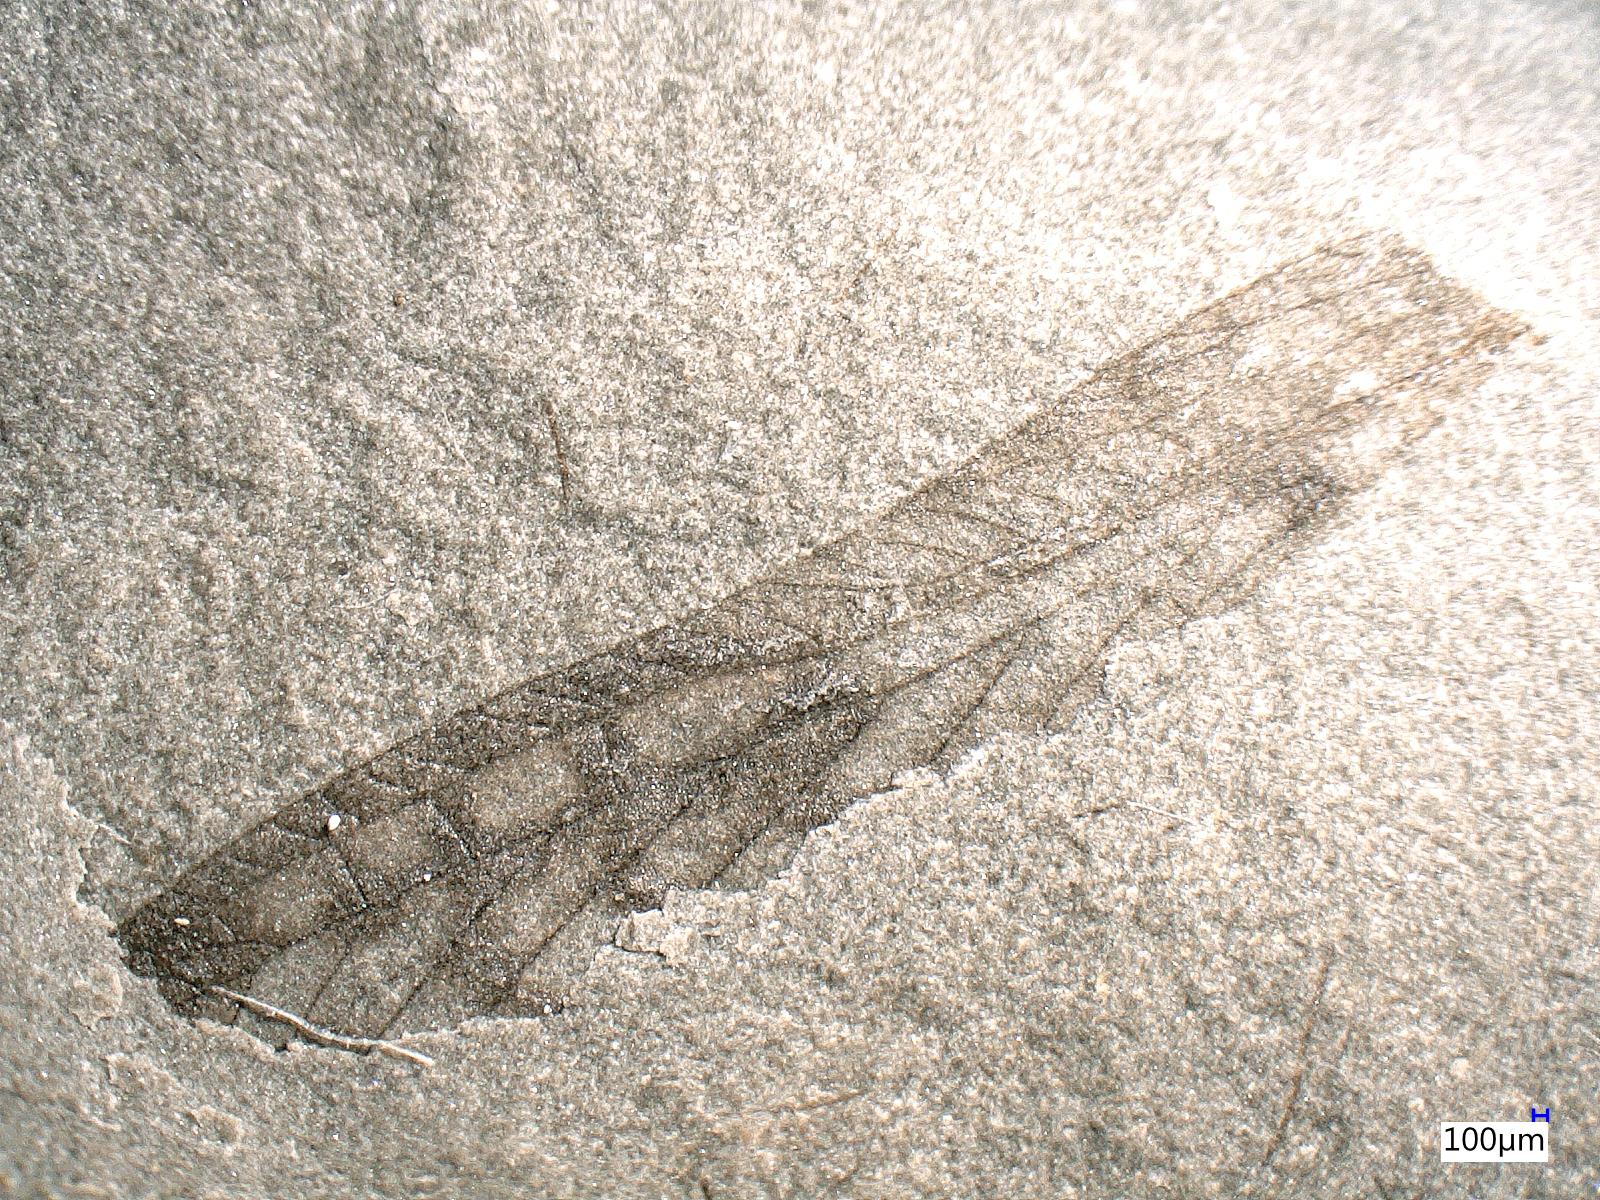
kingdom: Animalia
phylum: Arthropoda
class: Insecta
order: Orthoptera
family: Elcanidae
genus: Archelcana
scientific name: Archelcana
